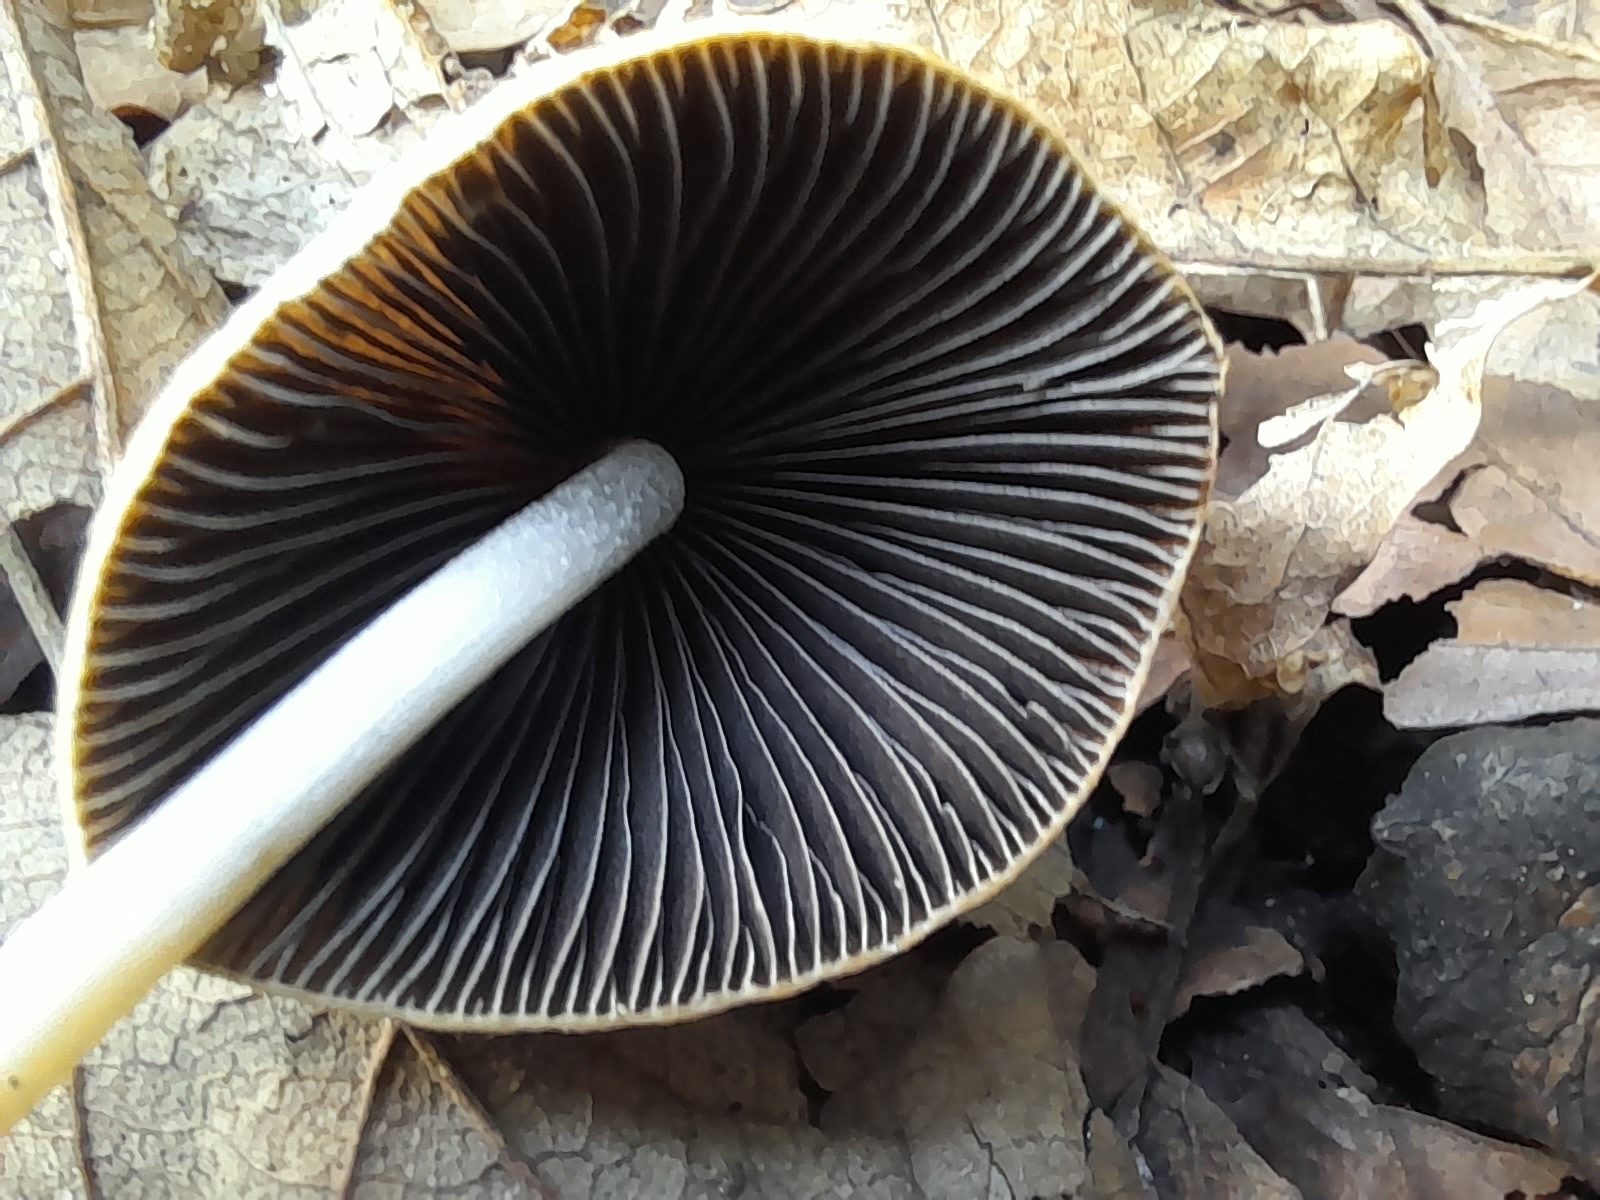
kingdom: Fungi
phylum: Basidiomycota
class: Agaricomycetes
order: Agaricales
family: Psathyrellaceae
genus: Parasola
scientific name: Parasola conopilea
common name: kegle-hjulhat
